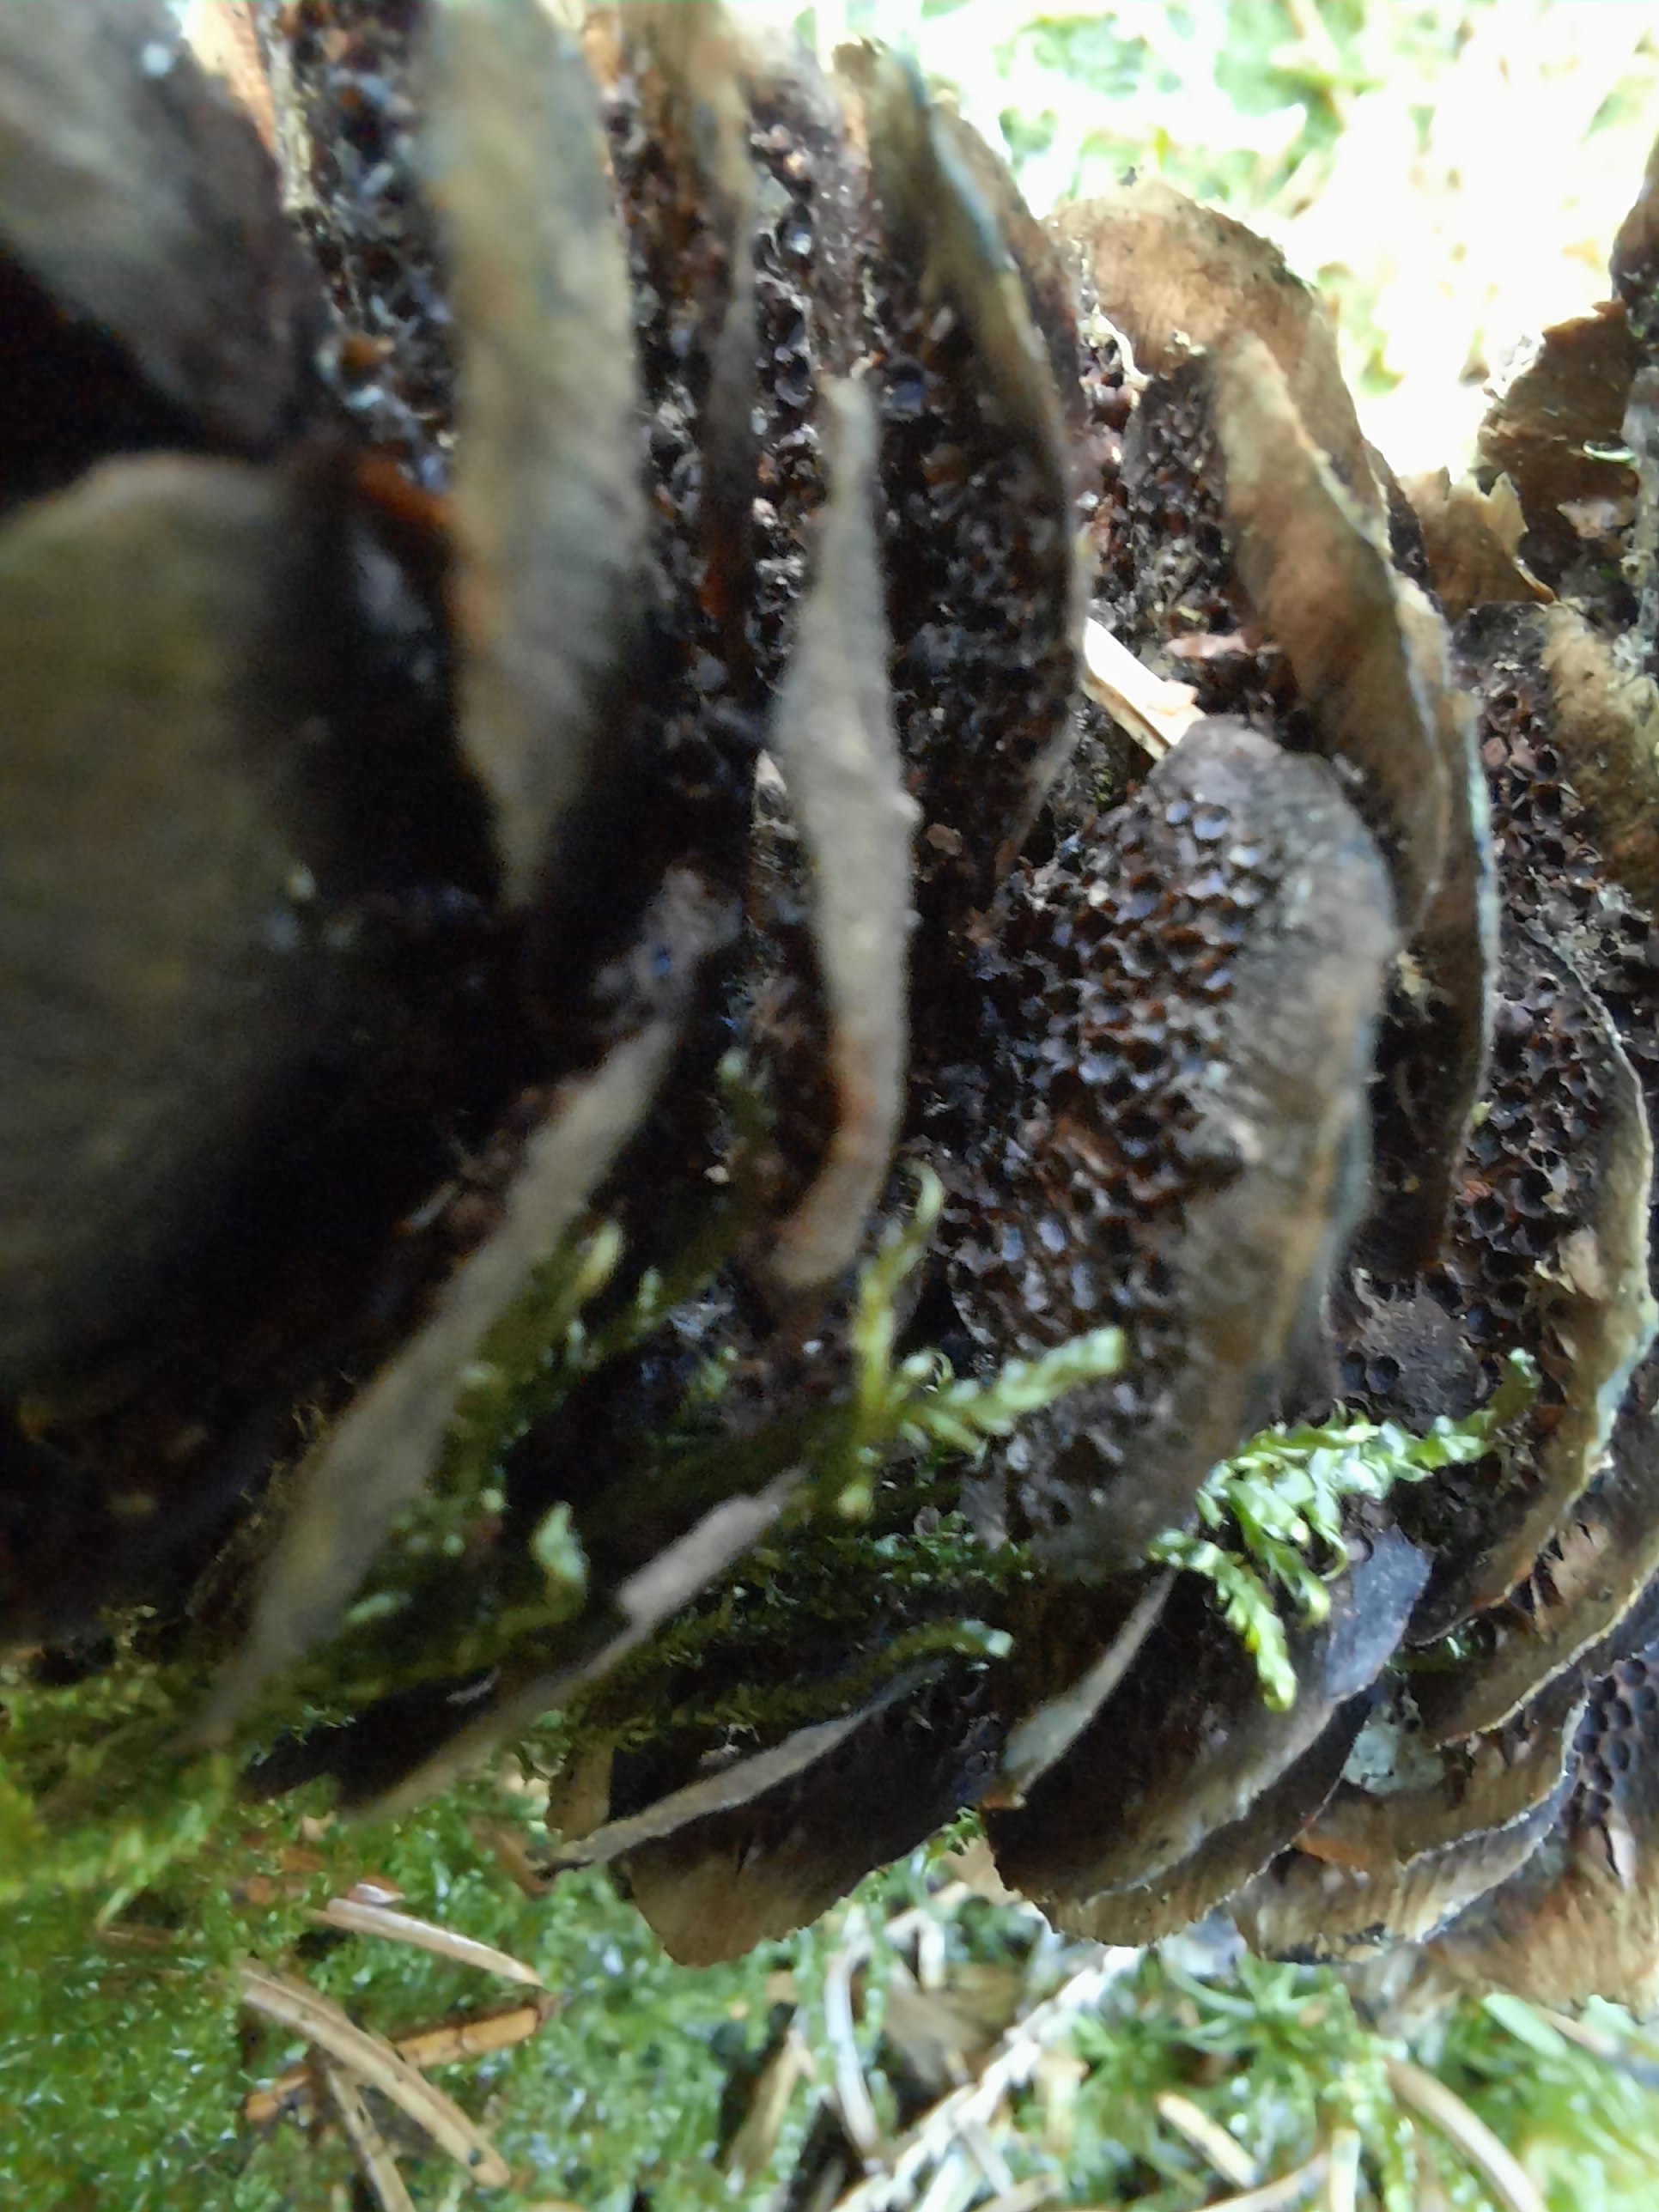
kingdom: Fungi
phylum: Basidiomycota
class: Pucciniomycetes
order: Pucciniales
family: Pucciniastraceae
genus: Thekopsora
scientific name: Thekopsora areolata
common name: grankogle-nålerust
